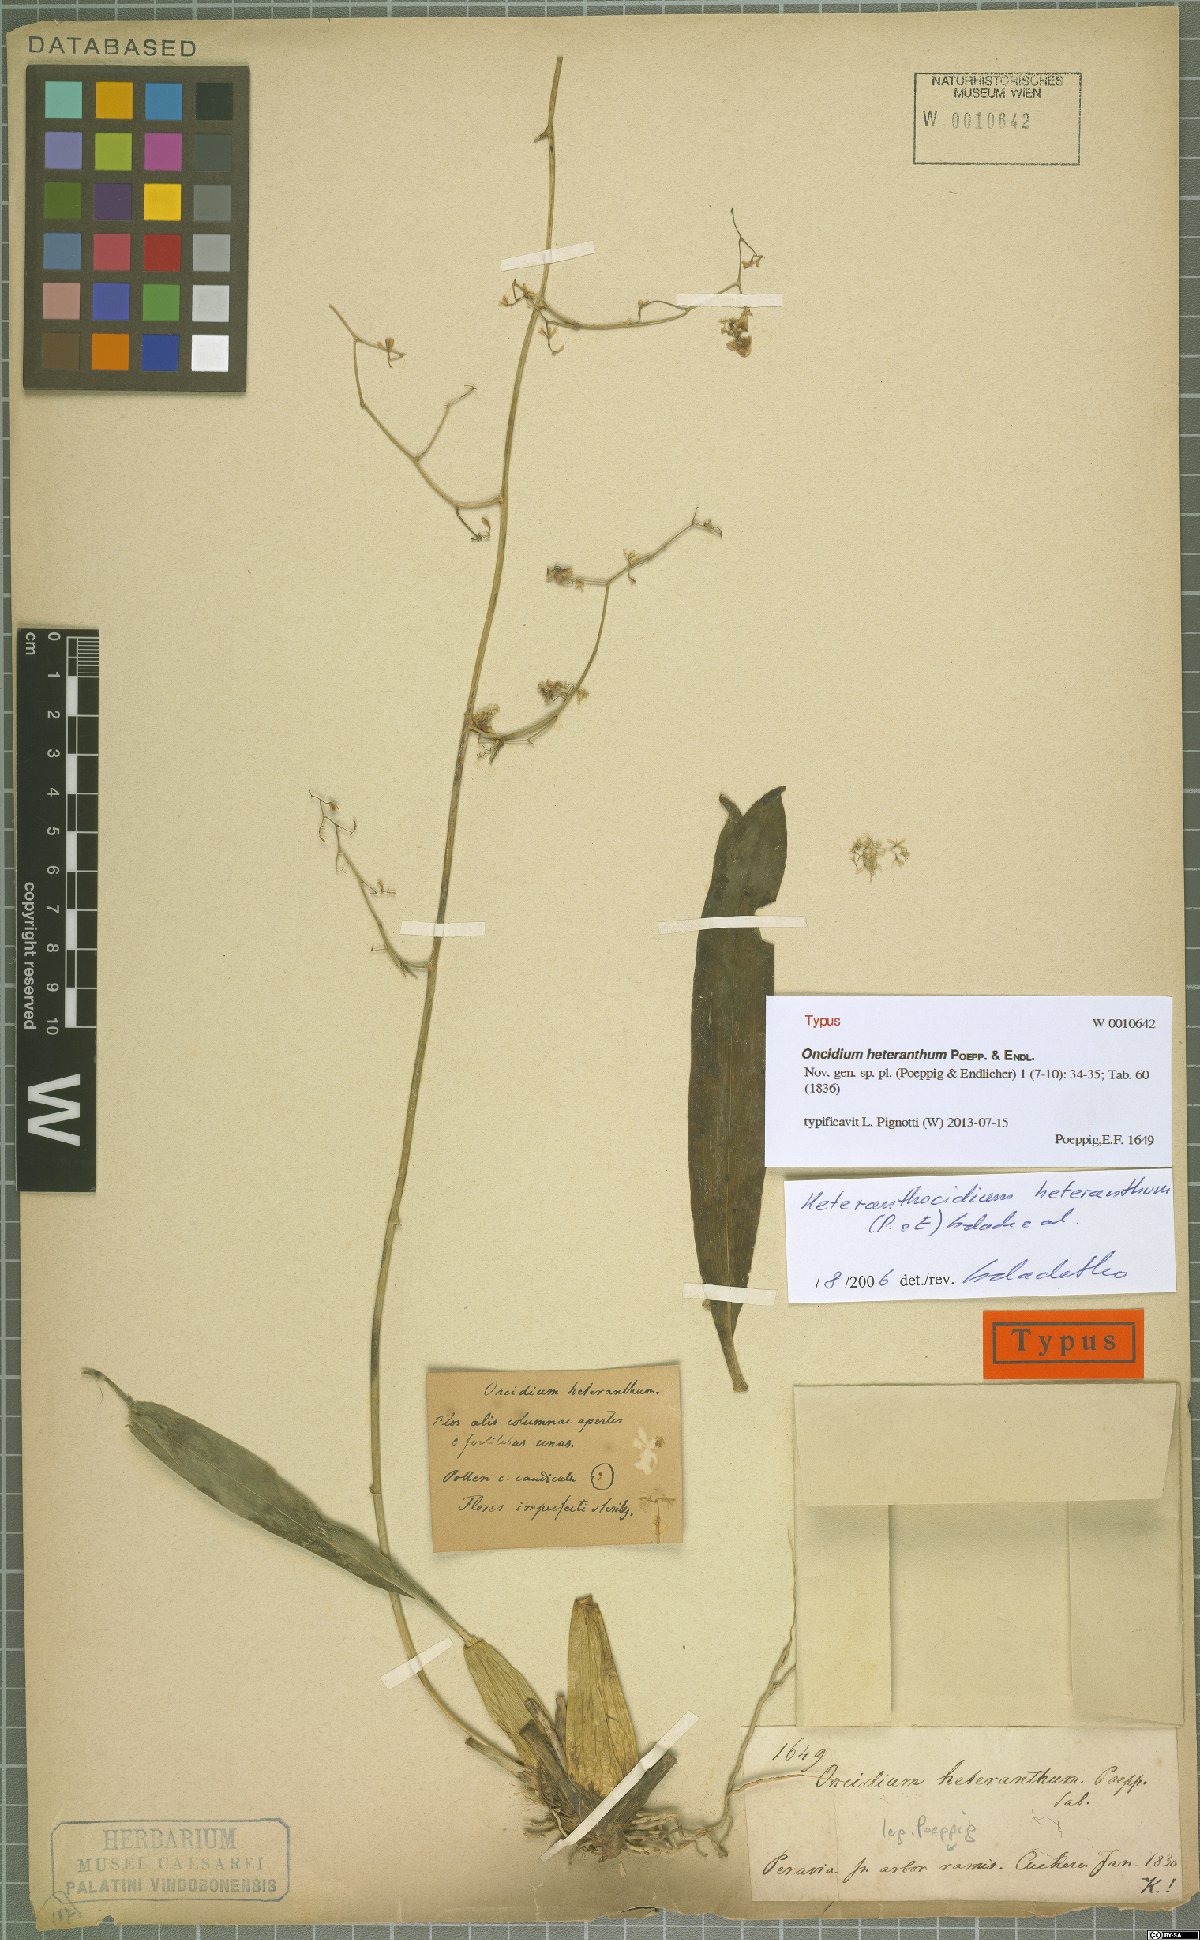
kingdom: Plantae
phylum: Tracheophyta
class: Liliopsida
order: Asparagales
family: Orchidaceae
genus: Oncidium
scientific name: Oncidium heteranthum
